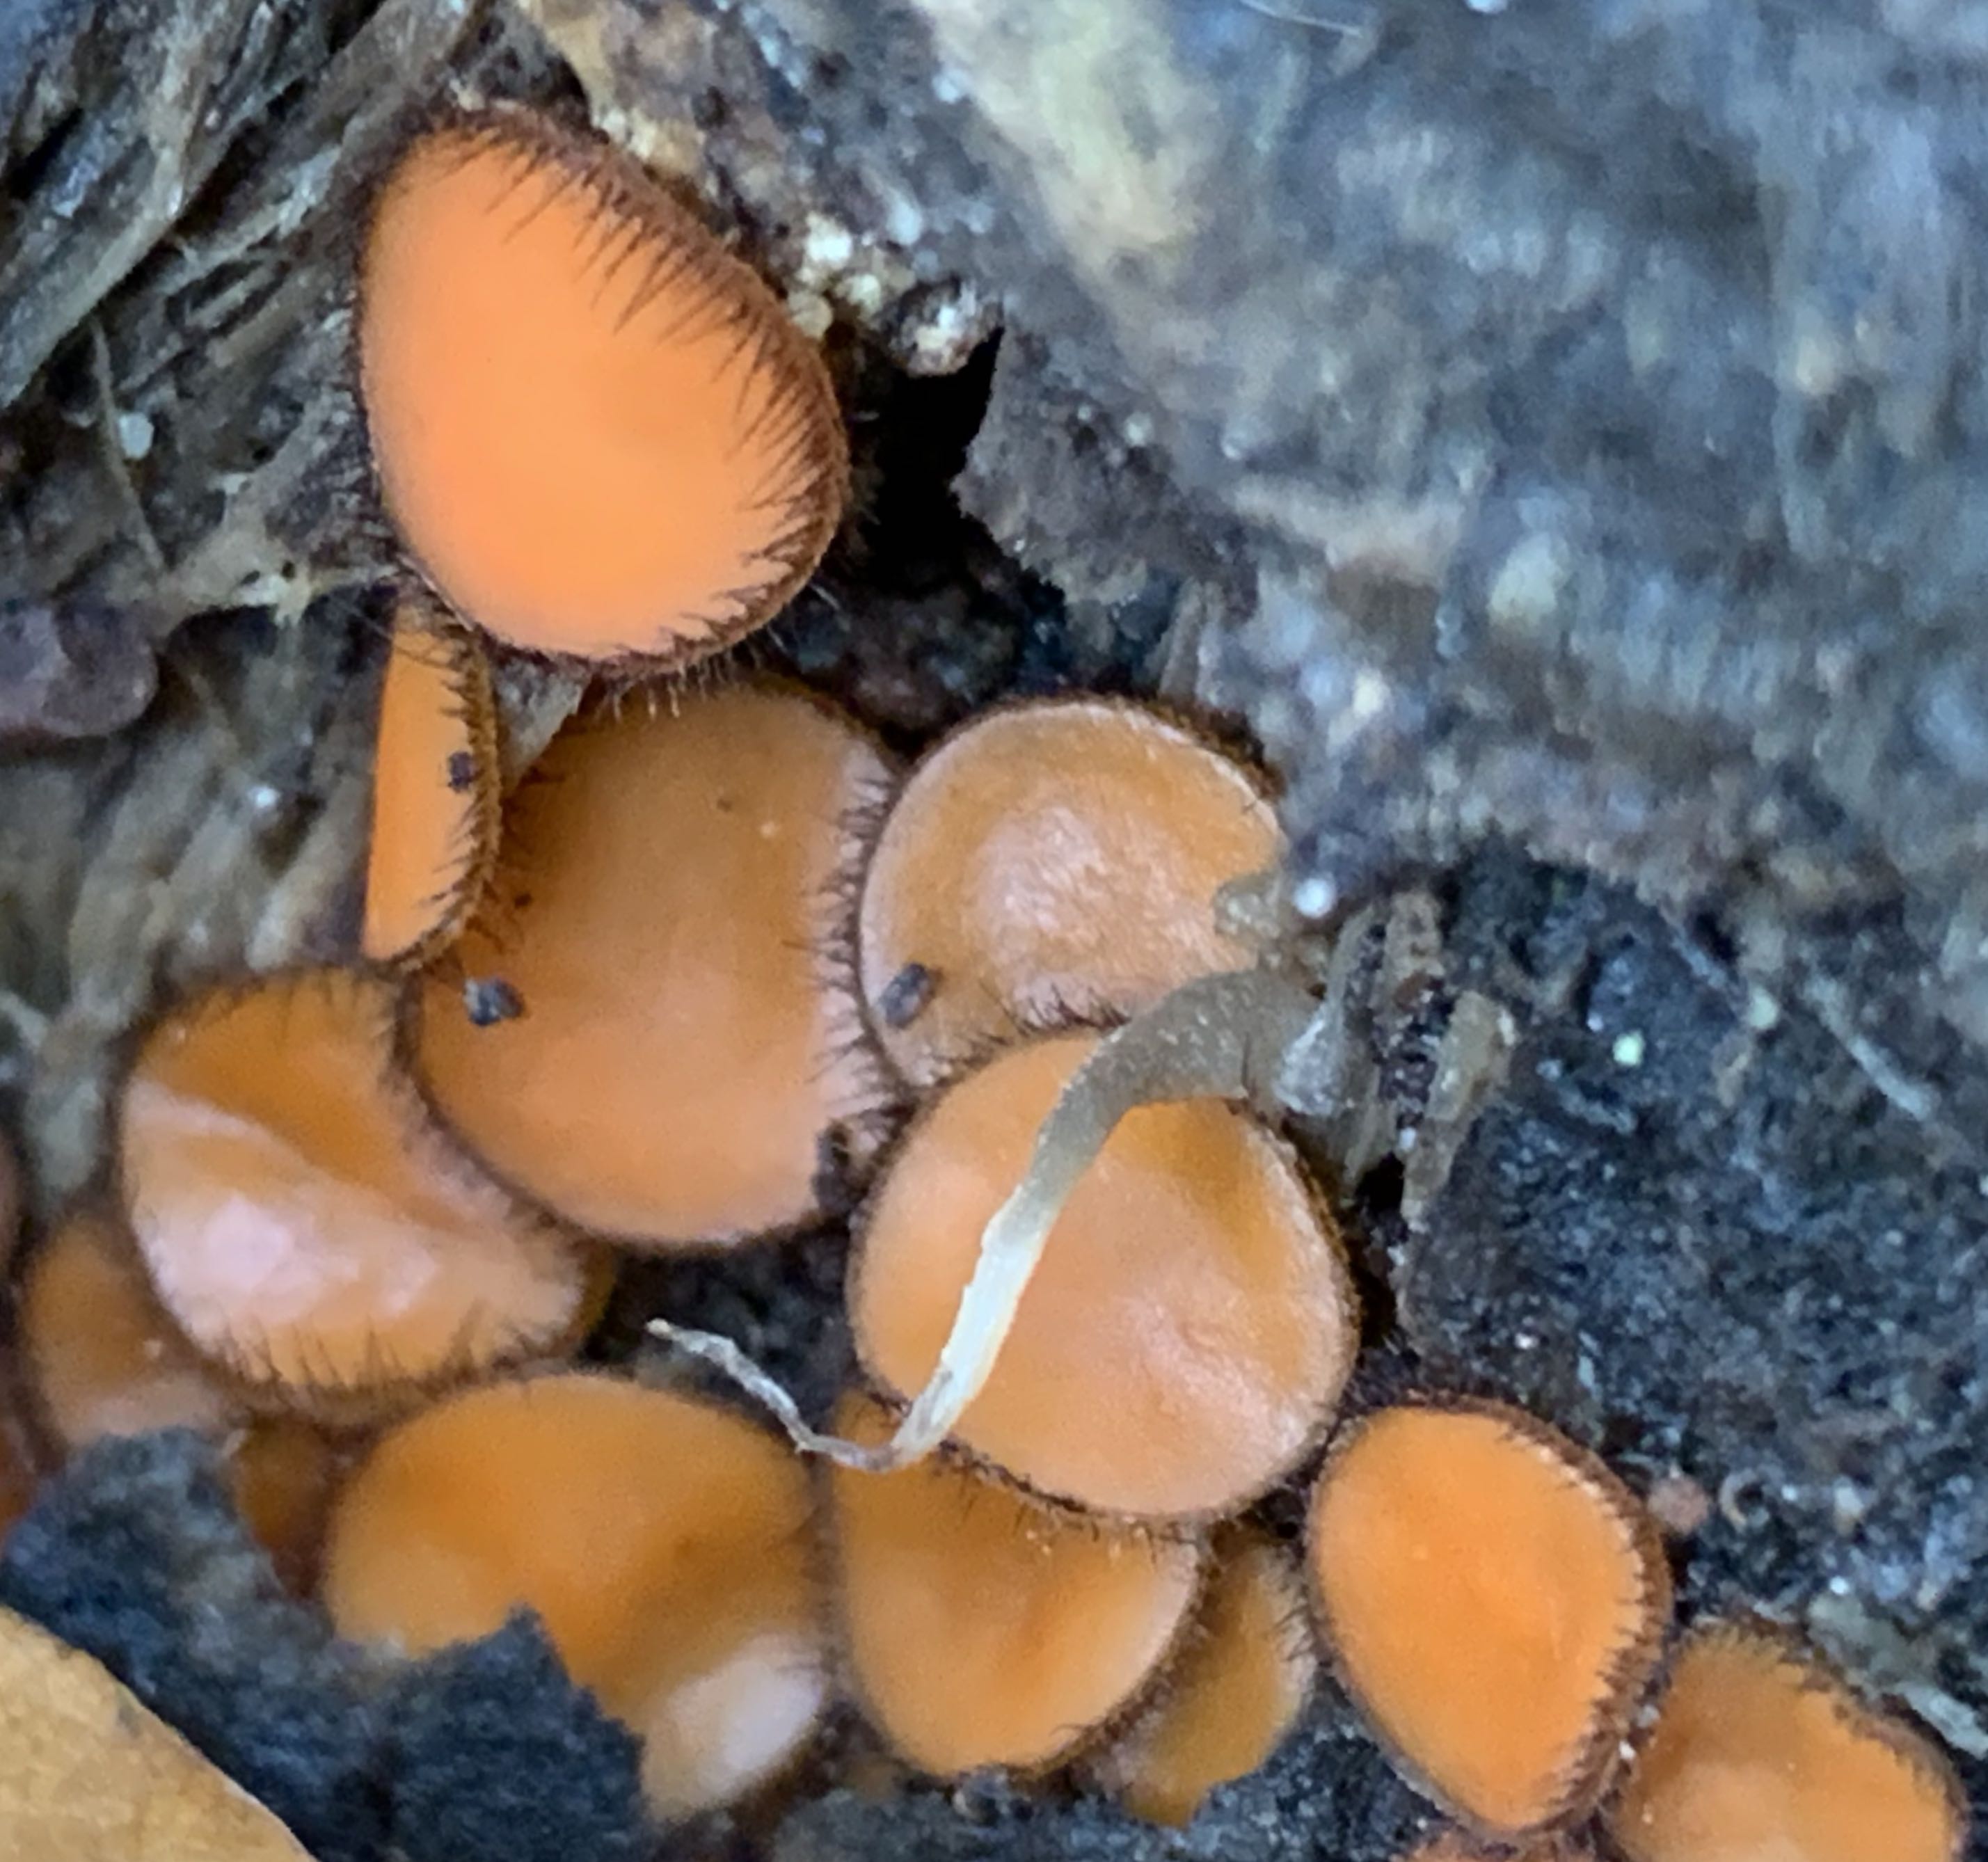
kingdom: Fungi
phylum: Ascomycota
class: Pezizomycetes
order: Pezizales
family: Pyronemataceae
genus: Scutellinia
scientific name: Scutellinia scutellata
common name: frynset skjoldbæger
